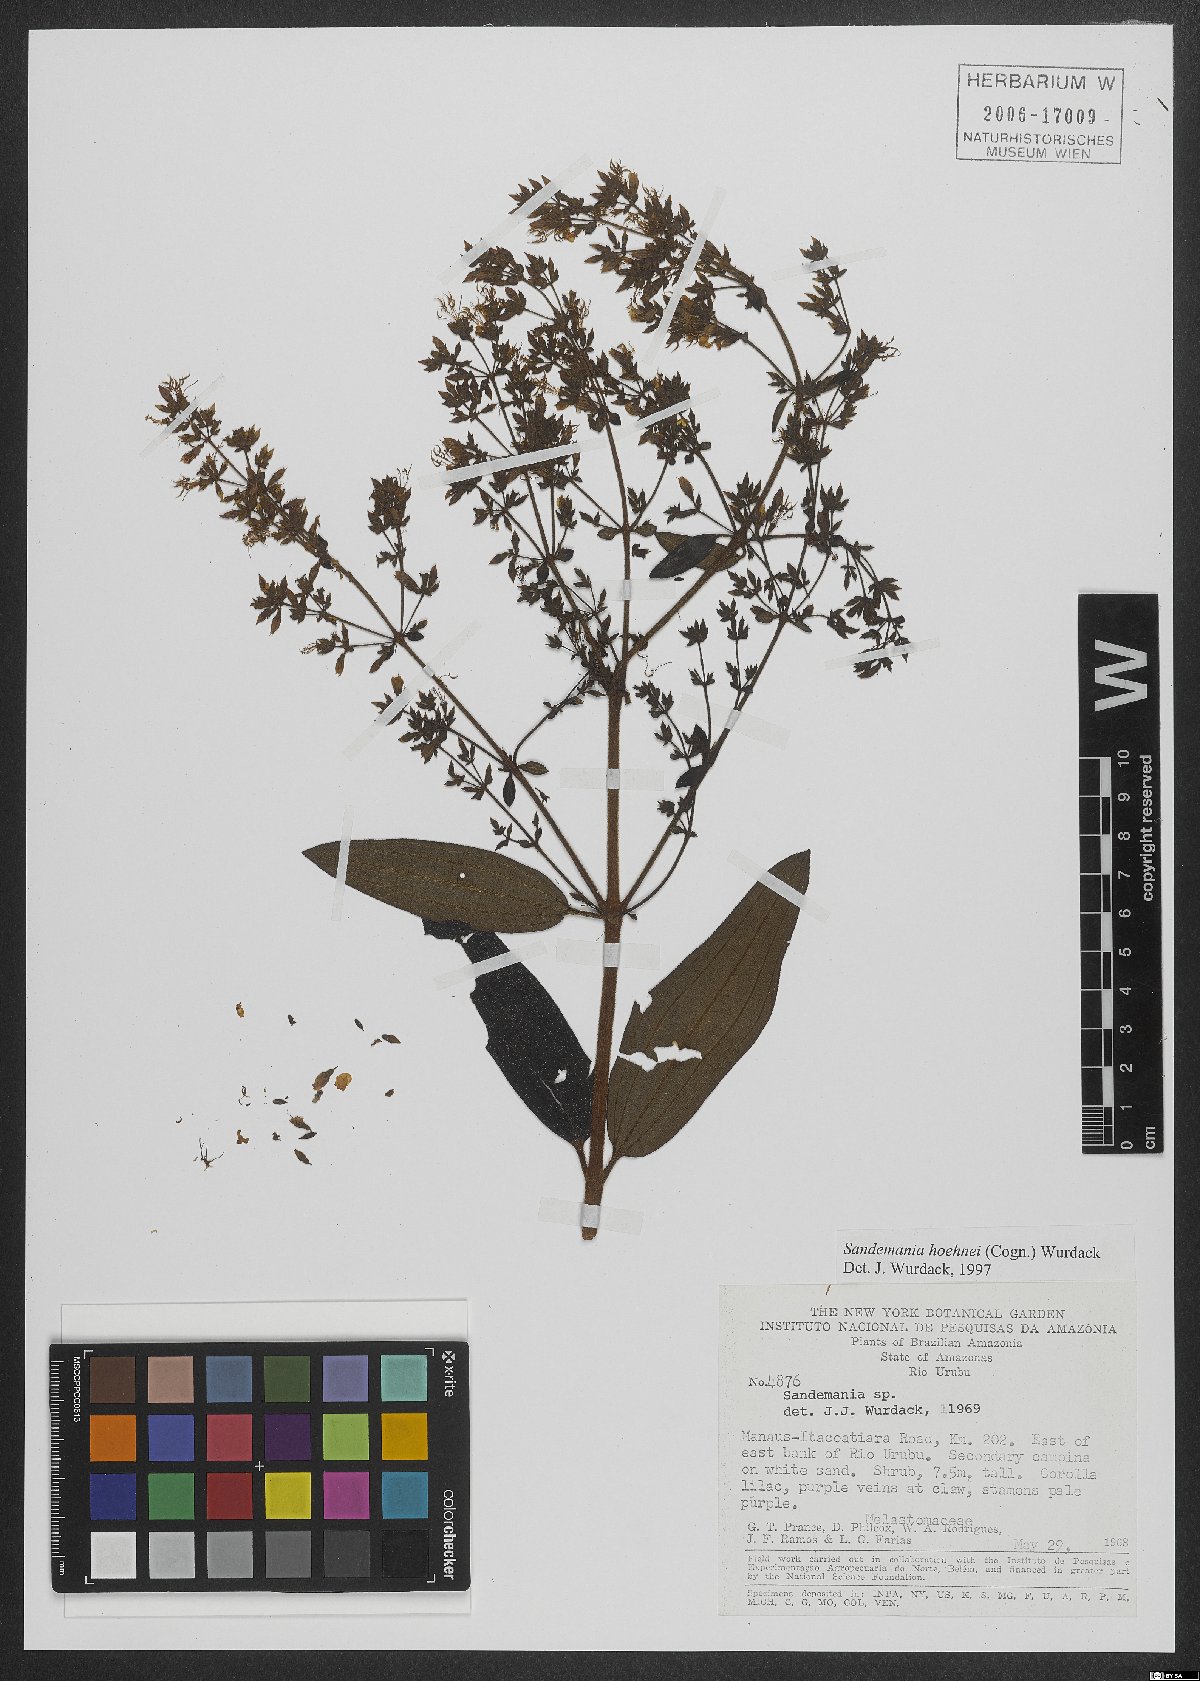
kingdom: Plantae
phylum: Tracheophyta
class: Magnoliopsida
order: Myrtales
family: Melastomataceae
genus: Sandemania
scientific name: Sandemania hoehnei
